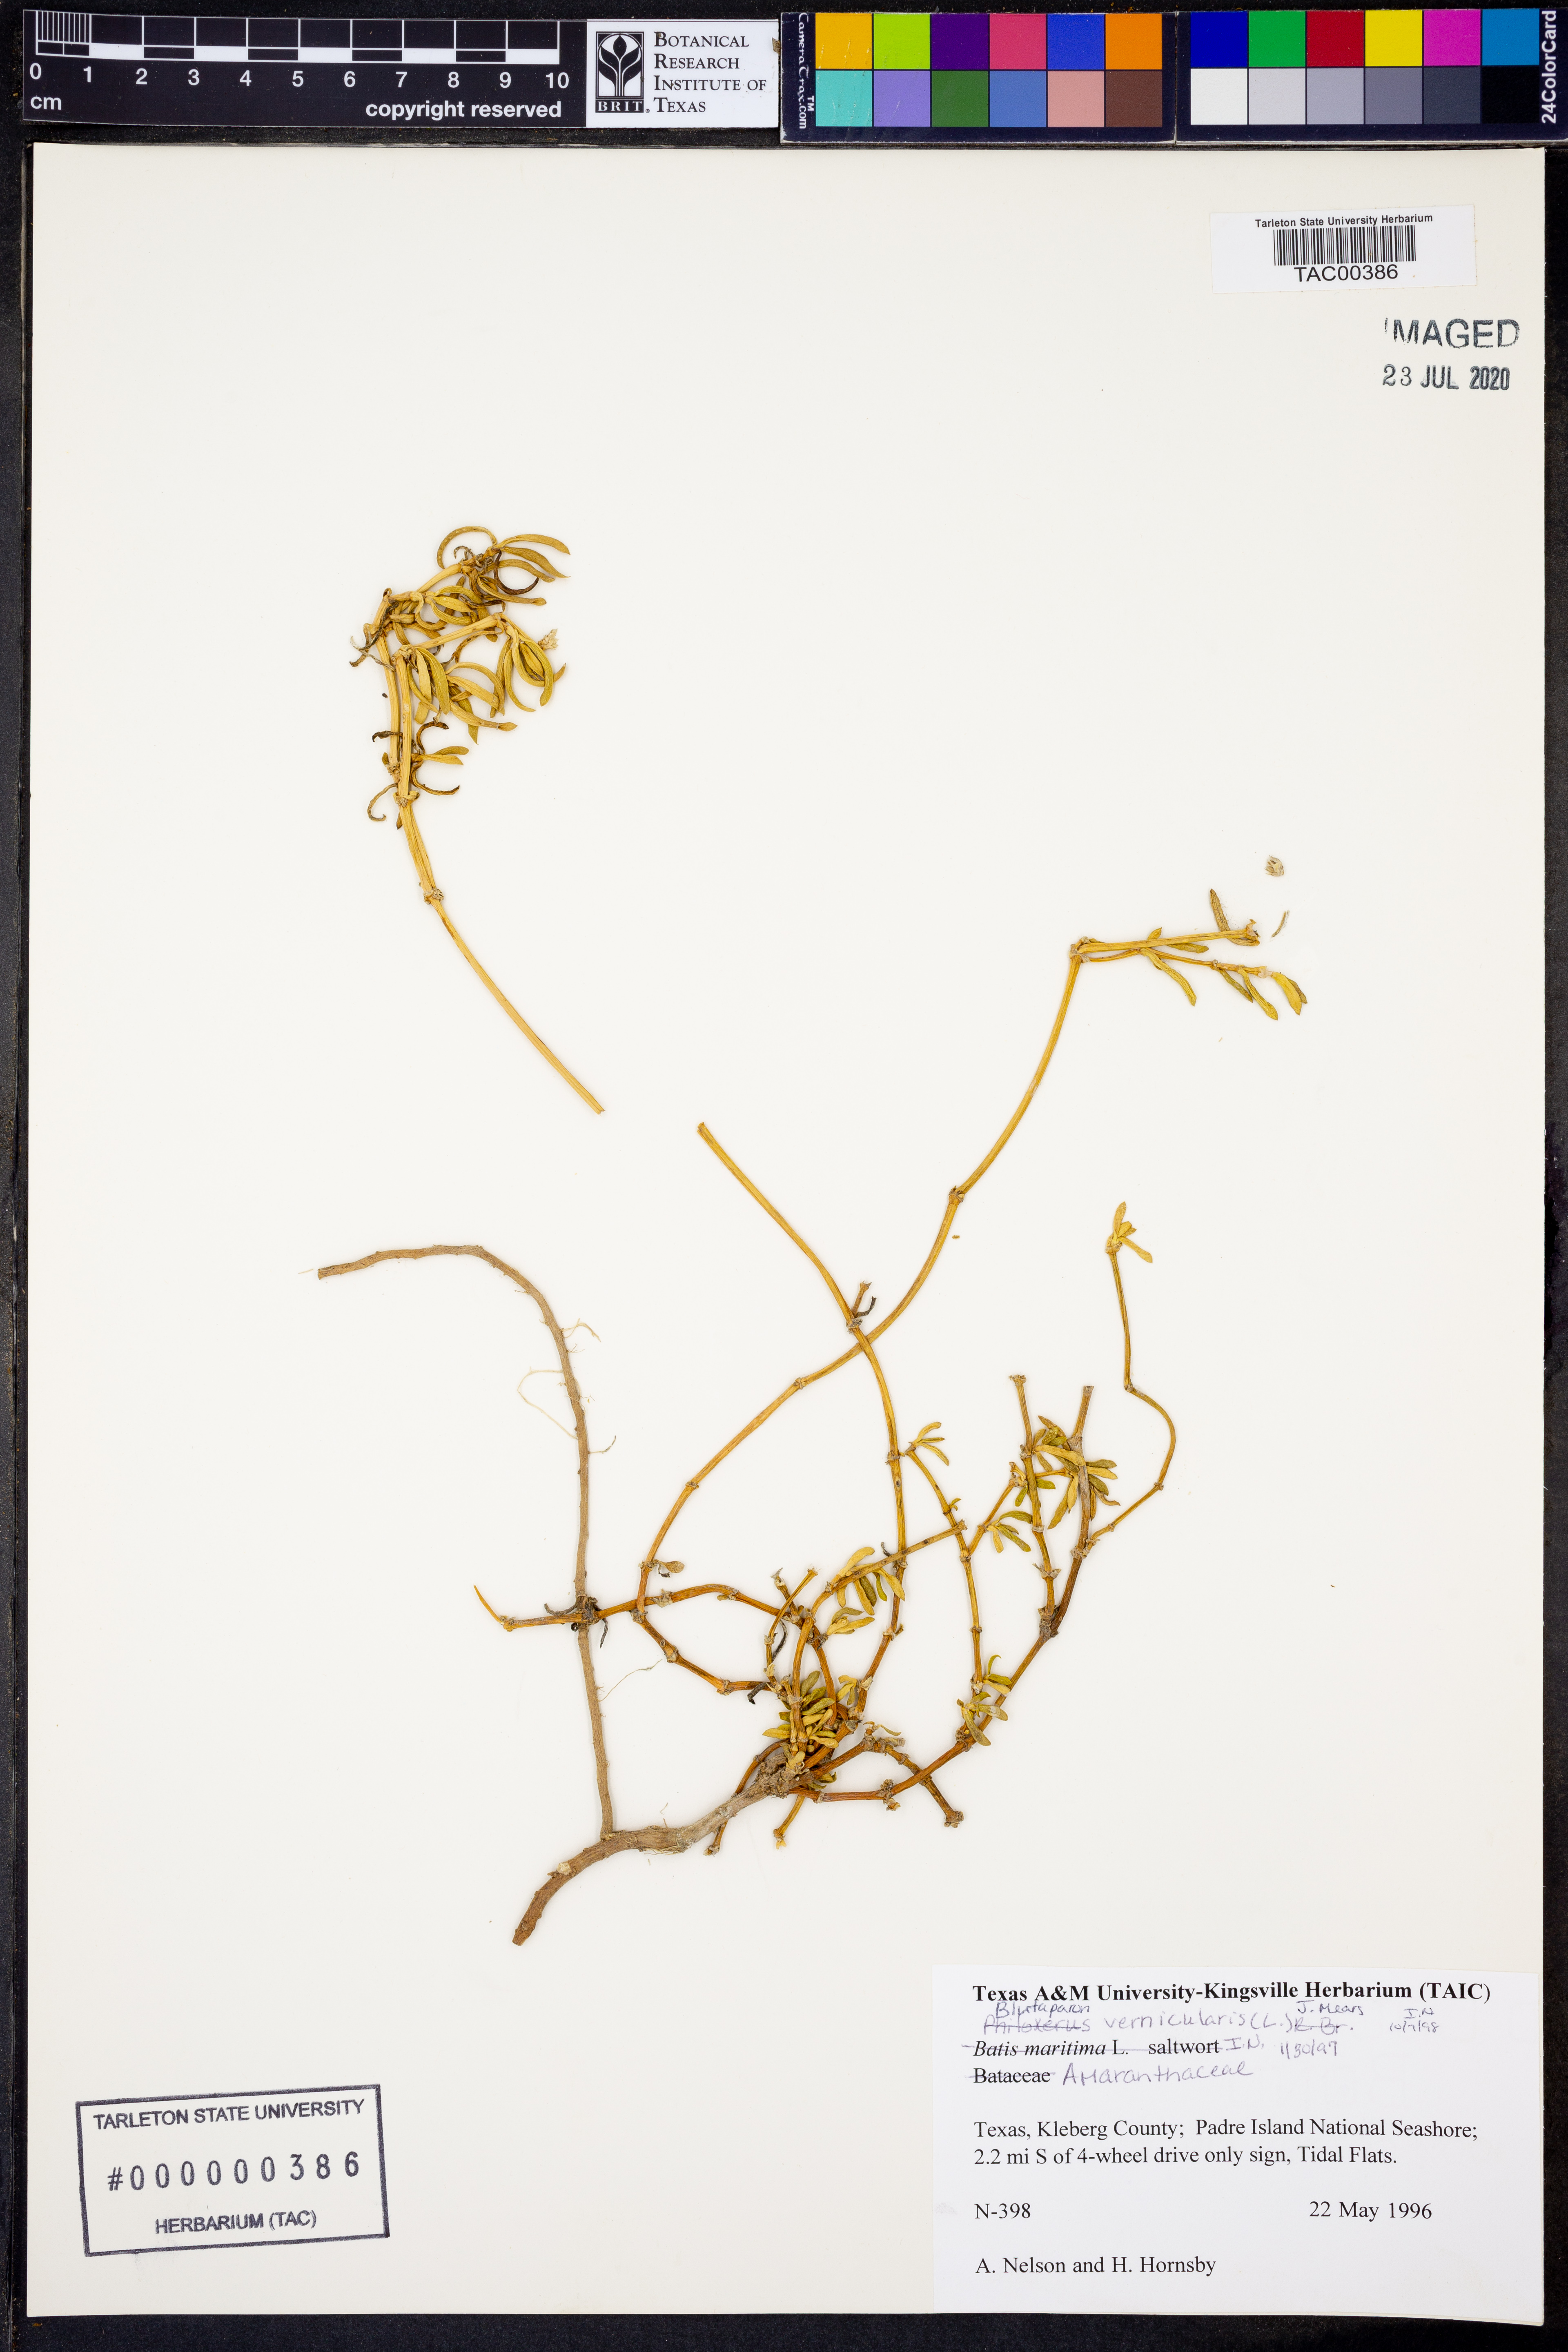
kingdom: Plantae
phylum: Tracheophyta
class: Magnoliopsida
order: Caryophyllales
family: Amaranthaceae
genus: Gomphrena
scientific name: Gomphrena vermicularis
